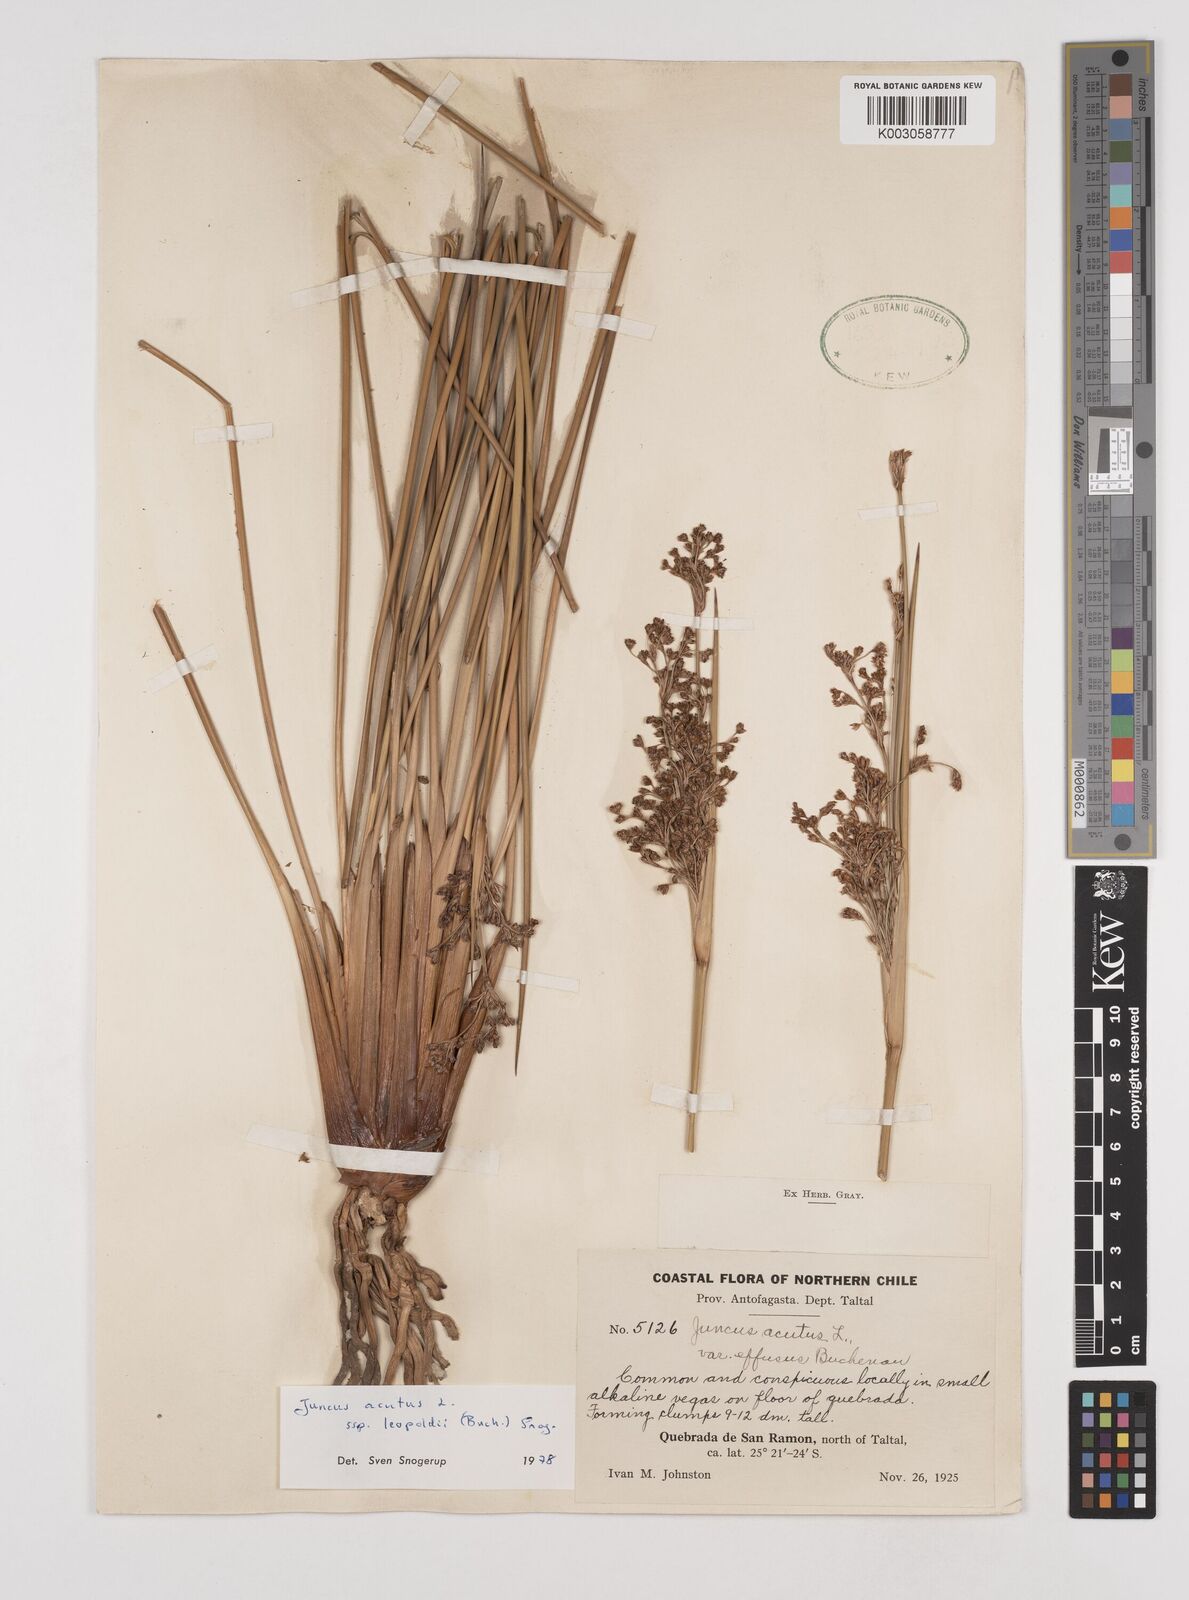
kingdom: Plantae
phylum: Tracheophyta
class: Liliopsida
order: Poales
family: Juncaceae
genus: Juncus
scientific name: Juncus acutus
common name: Sharp rush
